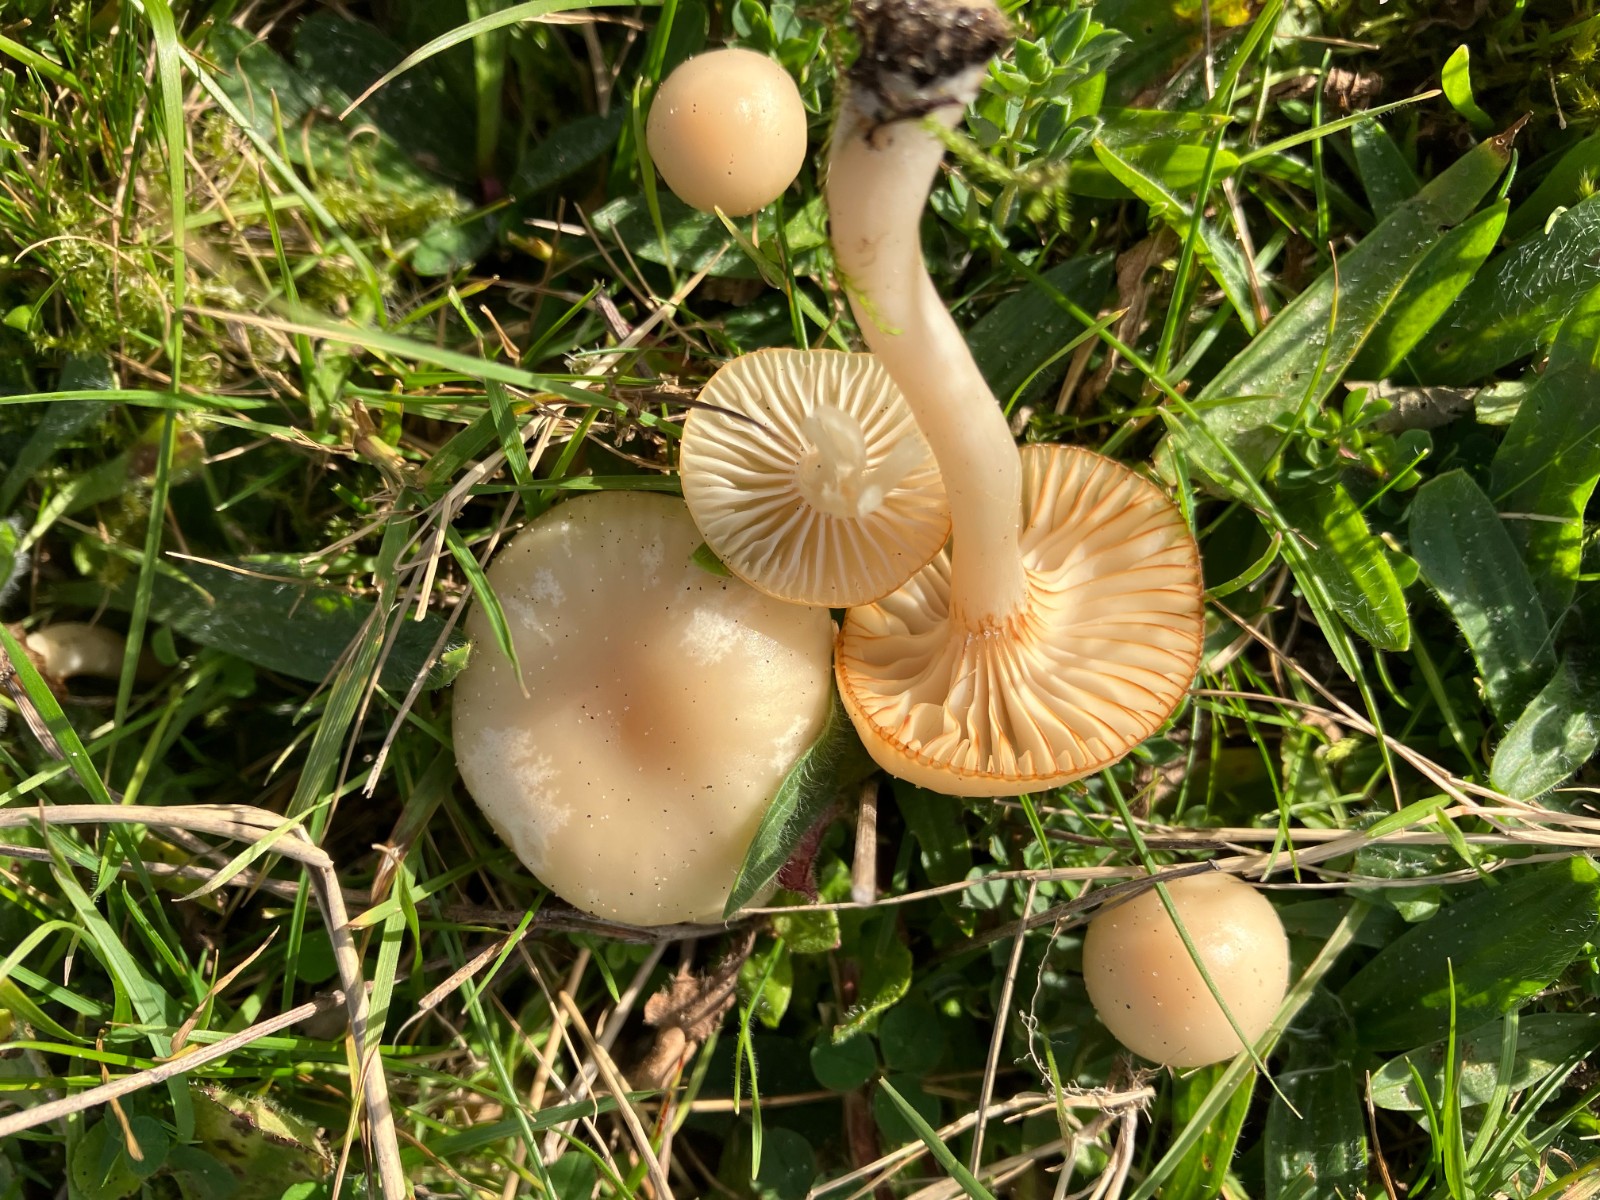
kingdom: Fungi
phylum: Basidiomycota
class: Agaricomycetes
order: Agaricales
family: Hygrophoraceae
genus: Cuphophyllus
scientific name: Cuphophyllus virgineus
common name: isabella-vokshat
